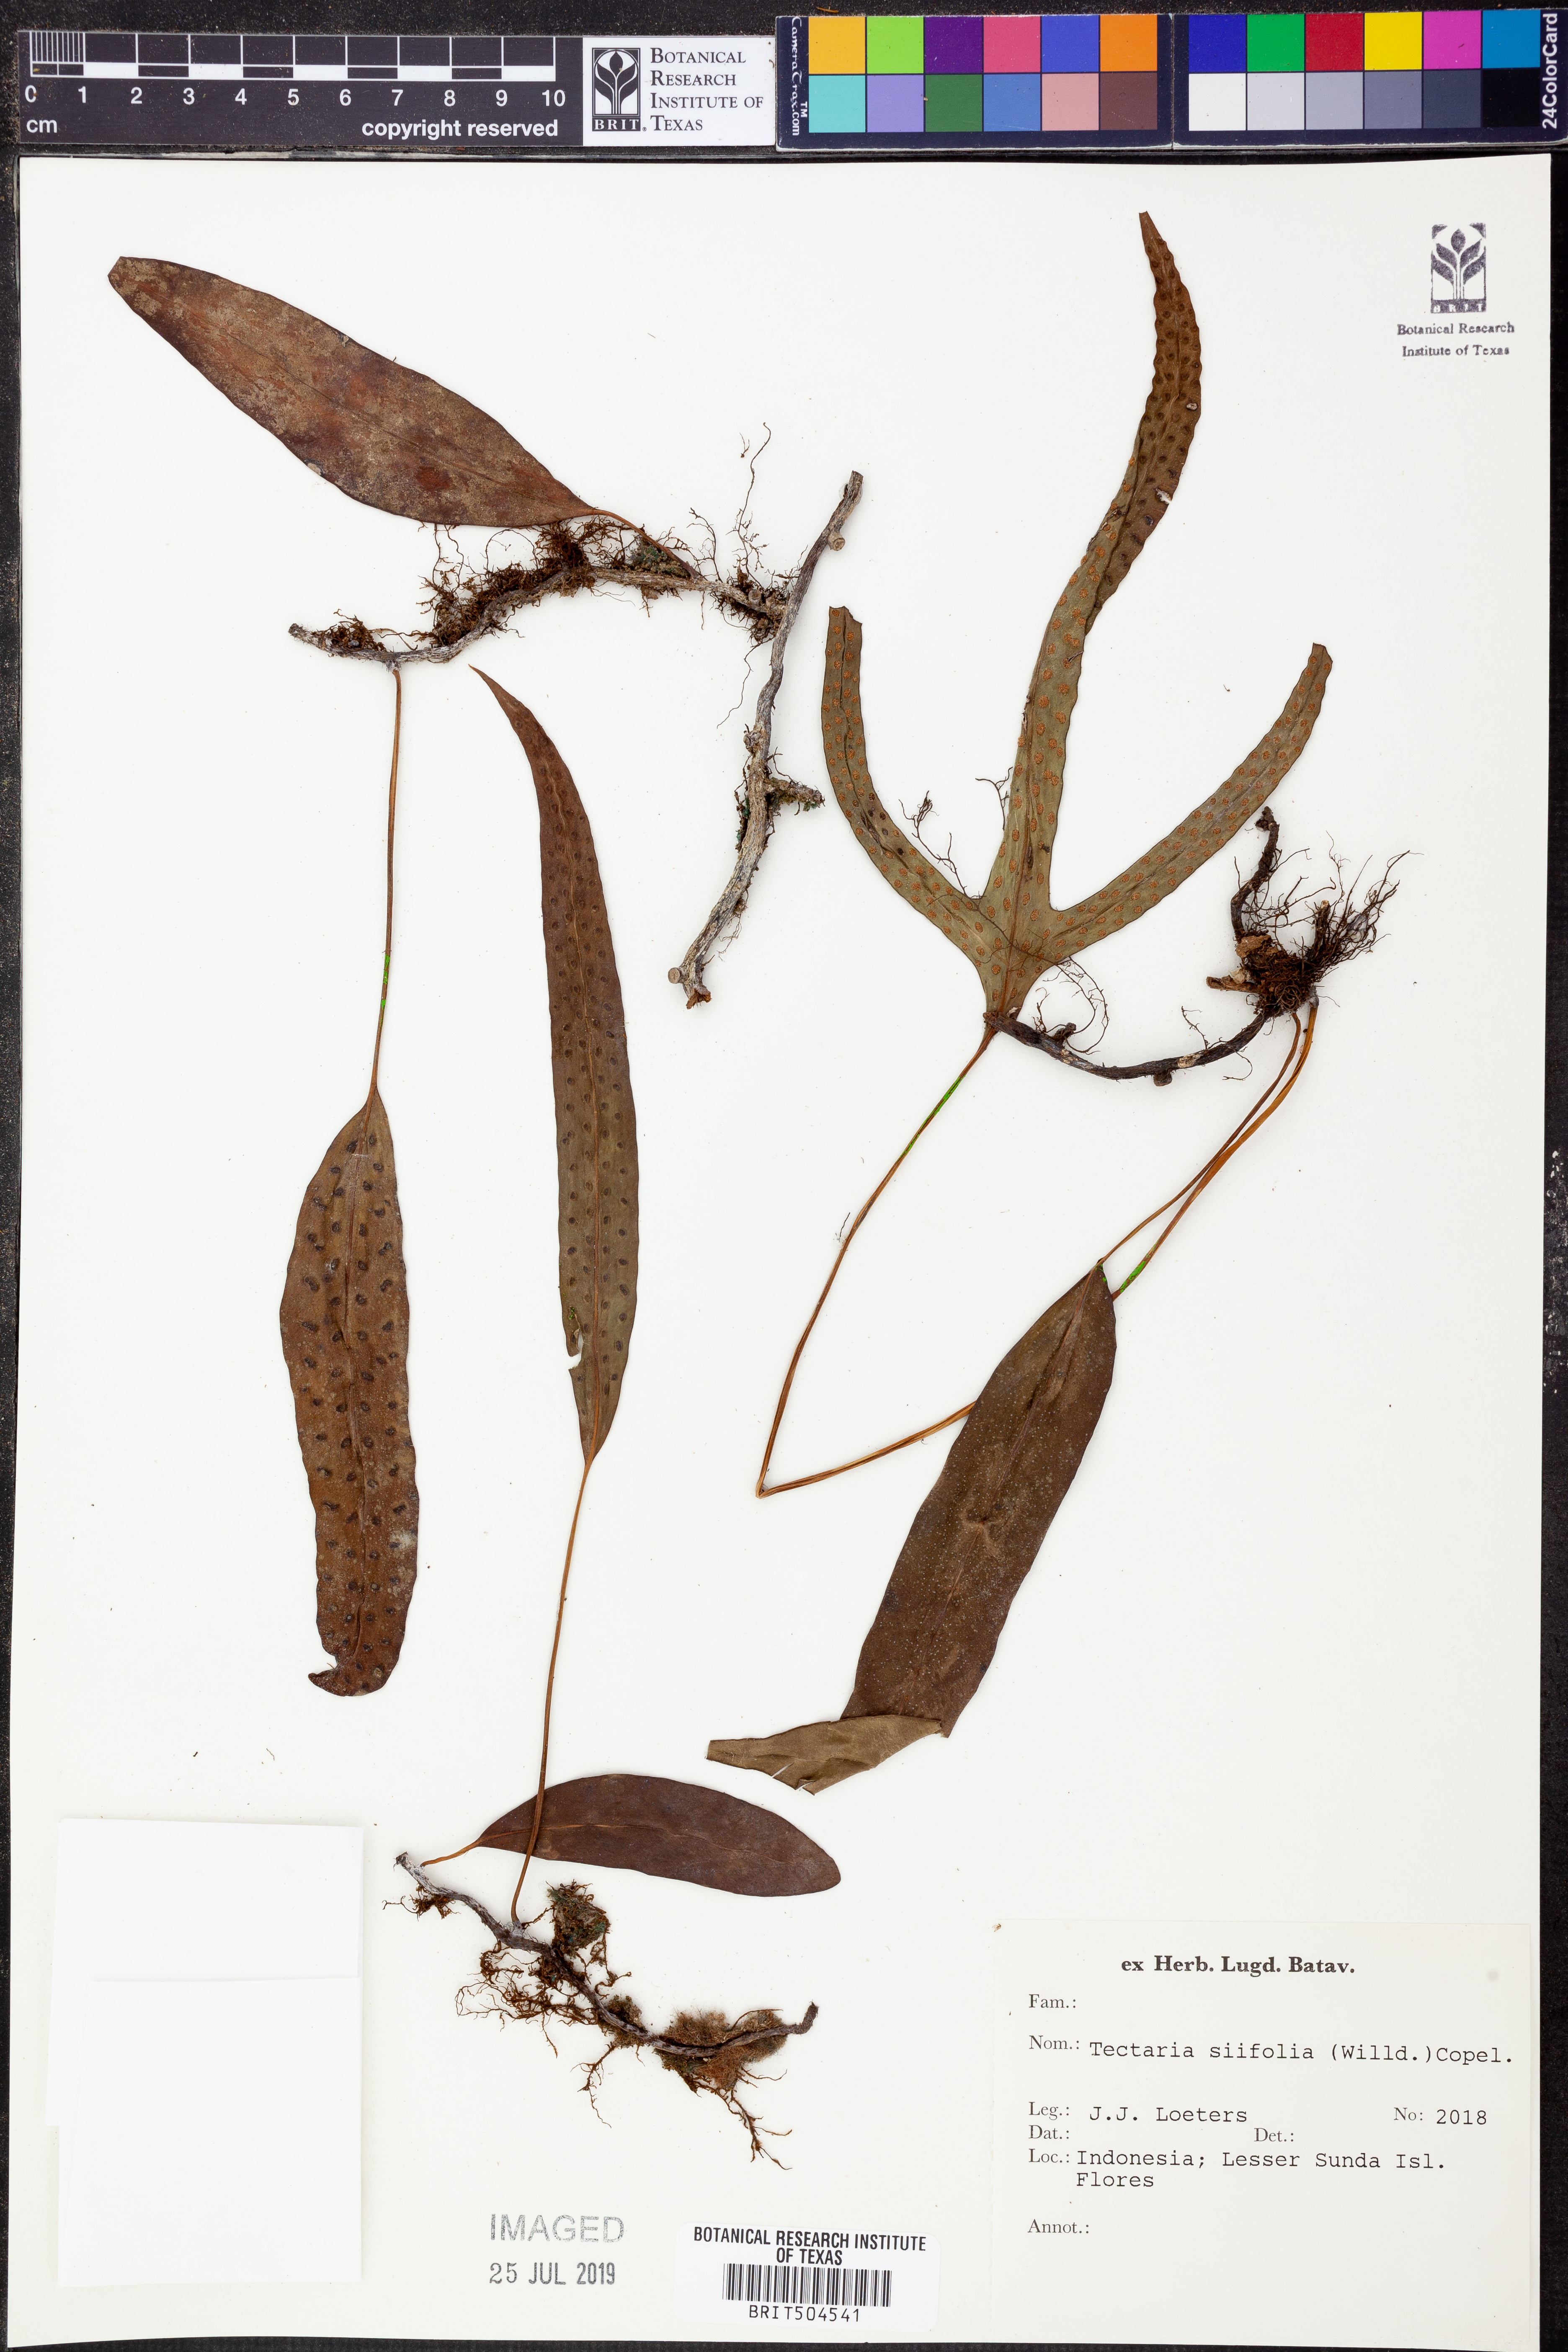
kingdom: Plantae
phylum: Tracheophyta
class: Polypodiopsida
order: Polypodiales
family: Tectariaceae
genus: Tectaria
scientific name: Tectaria siifolia
